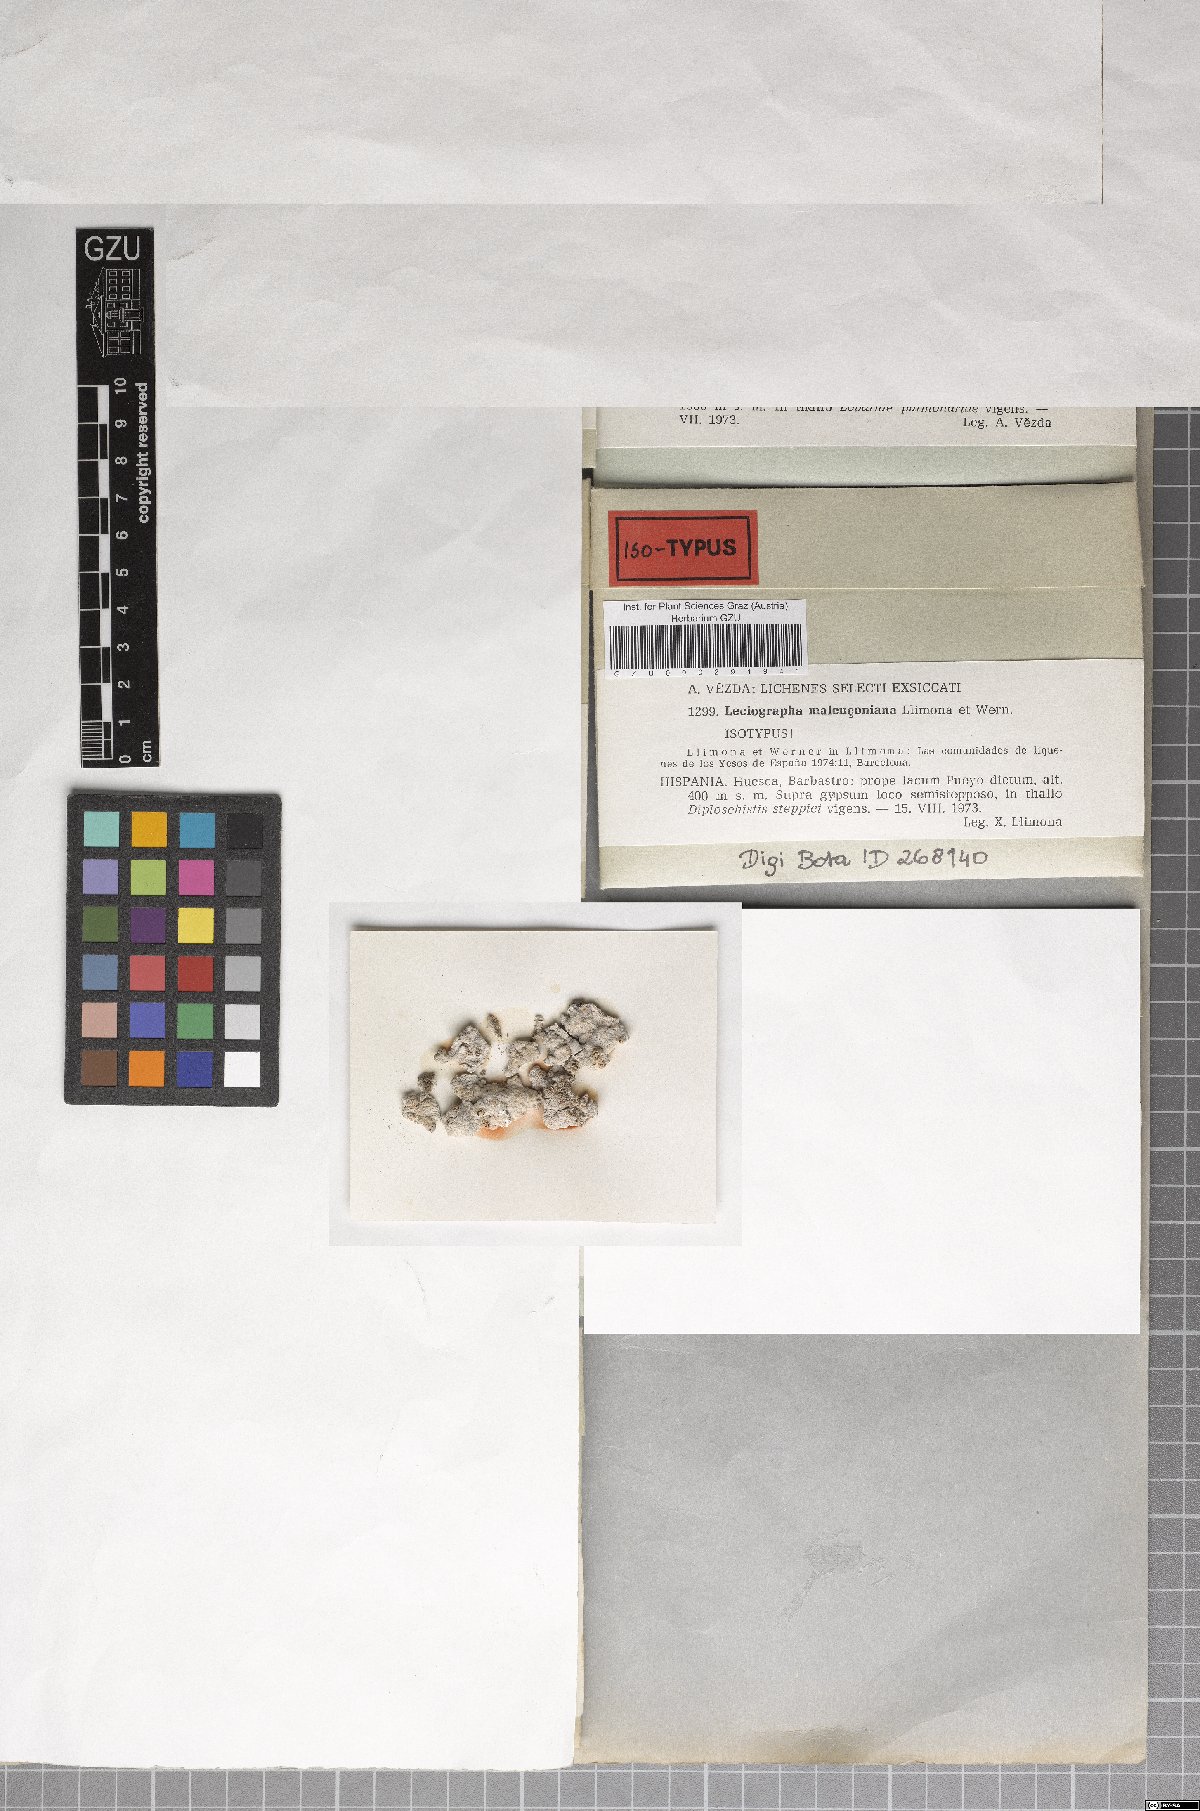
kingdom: Fungi
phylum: Ascomycota
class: Lecanoromycetes
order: Rhizocarpales
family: Rhizocarpaceae
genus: Rhizocarpon
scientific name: Rhizocarpon malenconianum
